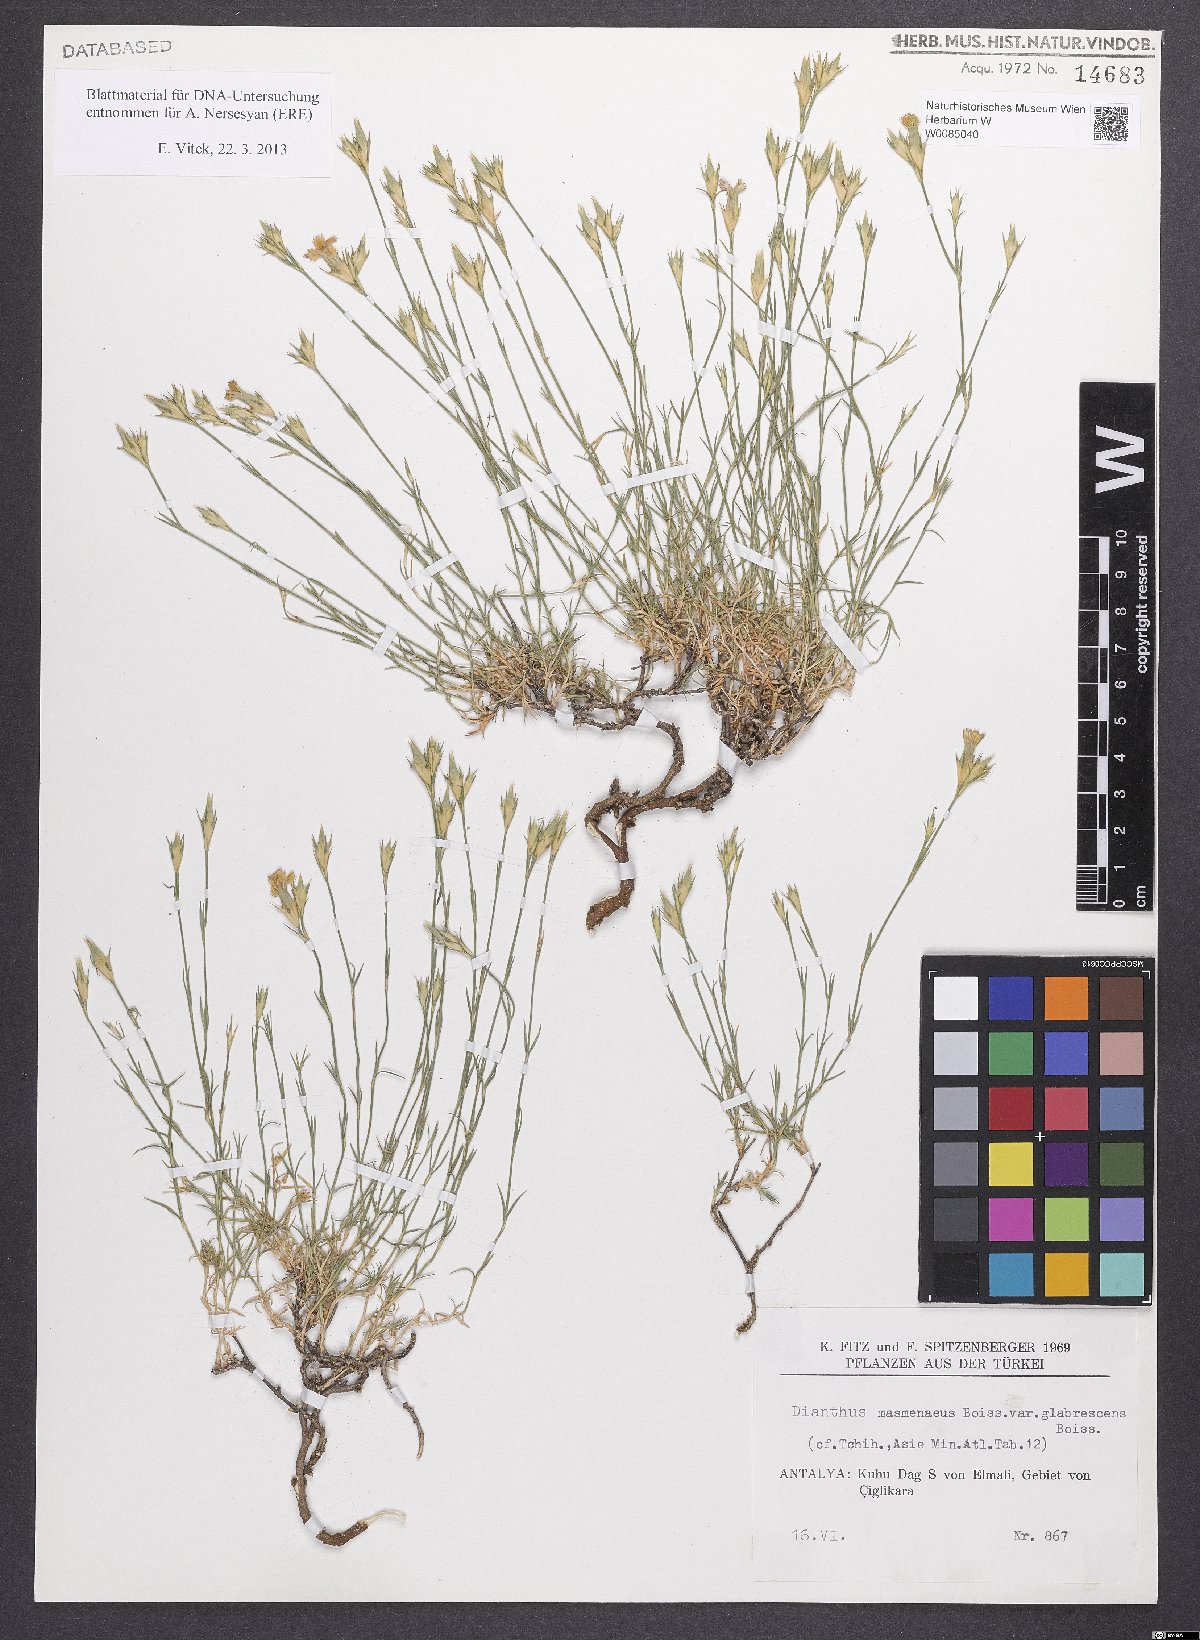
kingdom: Plantae
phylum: Tracheophyta
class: Magnoliopsida
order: Caryophyllales
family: Caryophyllaceae
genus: Dianthus
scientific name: Dianthus masmenaeus
